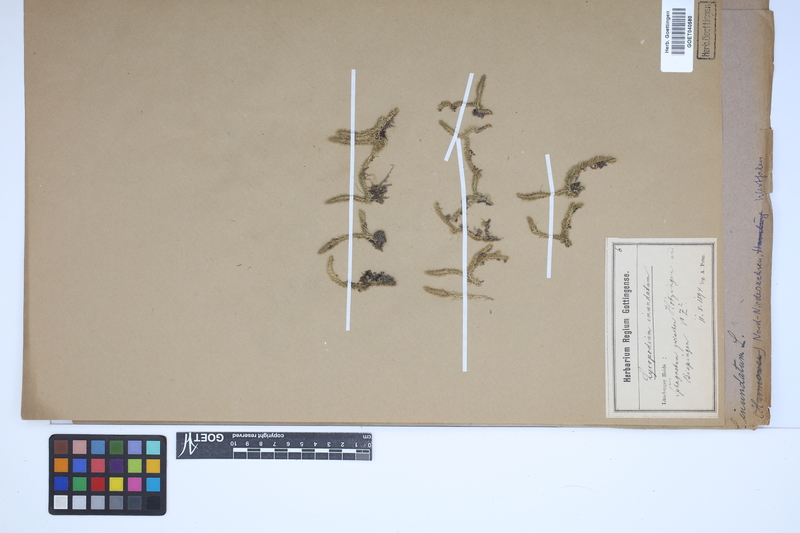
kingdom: Plantae
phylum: Tracheophyta
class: Lycopodiopsida
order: Lycopodiales
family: Lycopodiaceae
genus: Lycopodiella
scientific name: Lycopodiella inundata
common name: Marsh clubmoss
